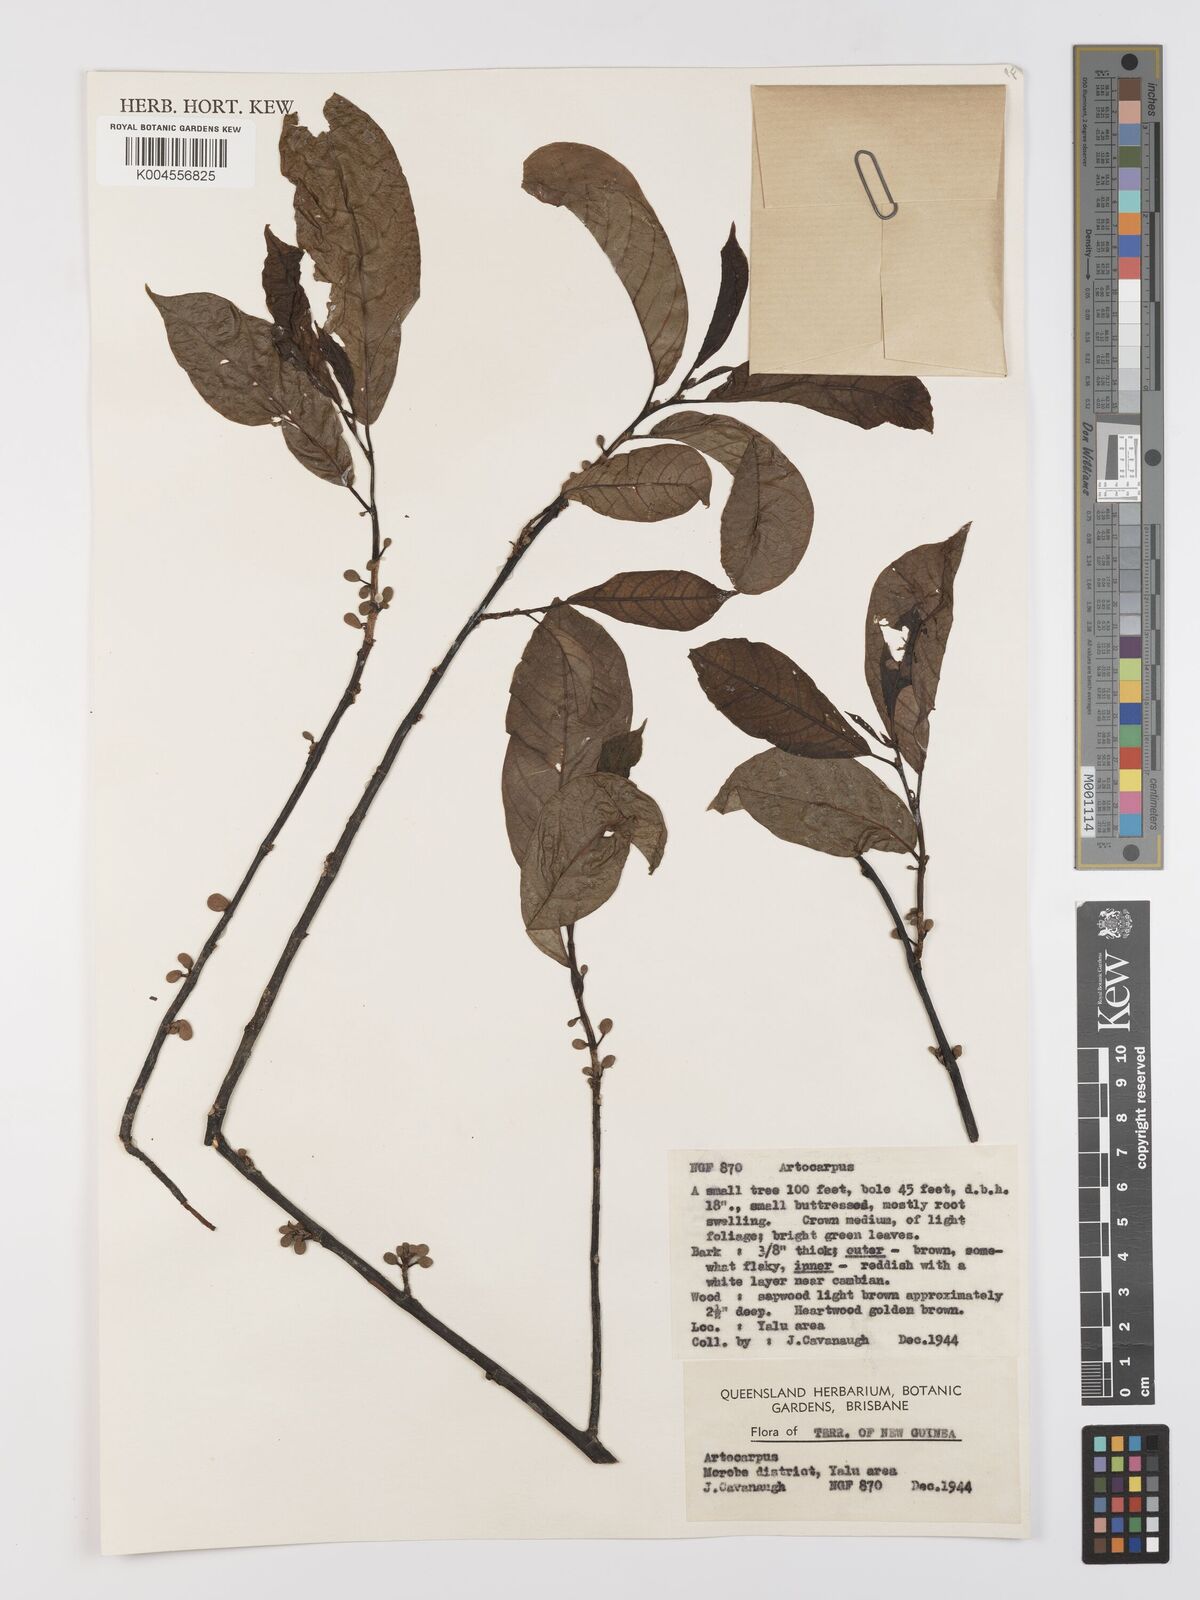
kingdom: Plantae
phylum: Tracheophyta
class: Magnoliopsida
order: Rosales
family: Moraceae
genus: Artocarpus
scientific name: Artocarpus
